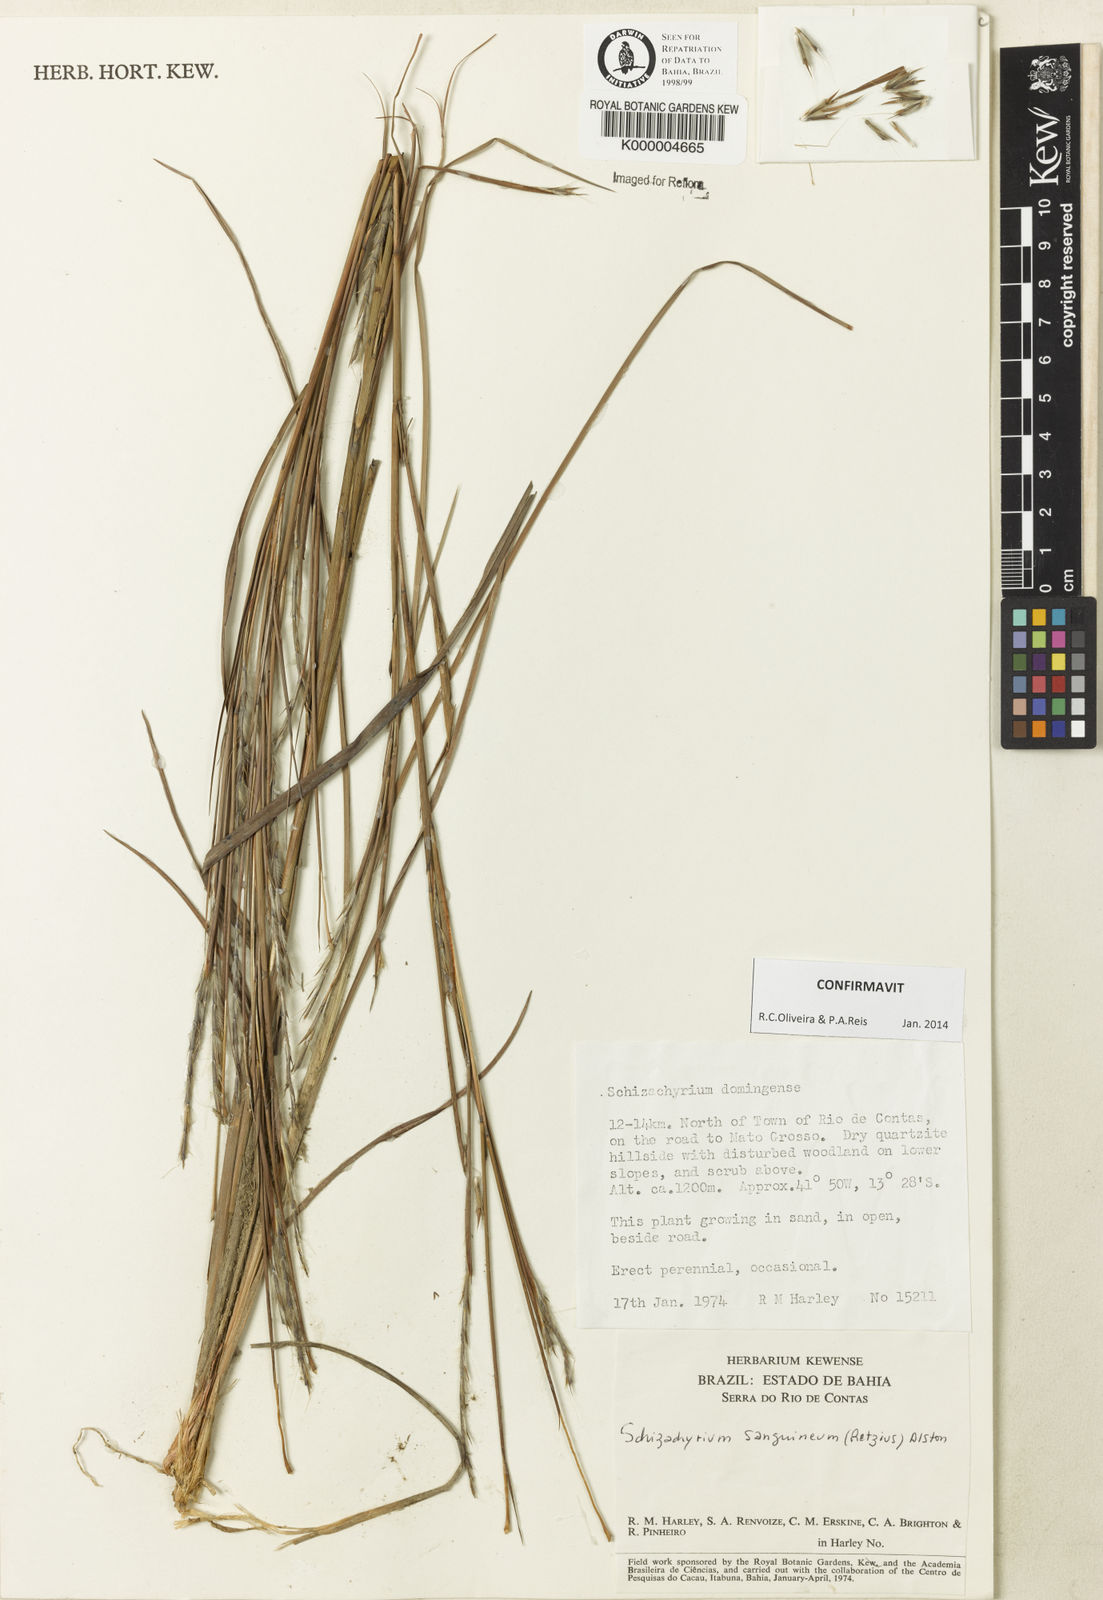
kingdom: Plantae
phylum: Tracheophyta
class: Liliopsida
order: Poales
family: Poaceae
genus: Schizachyrium
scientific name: Schizachyrium sanguineum
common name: Crimson bluestem
